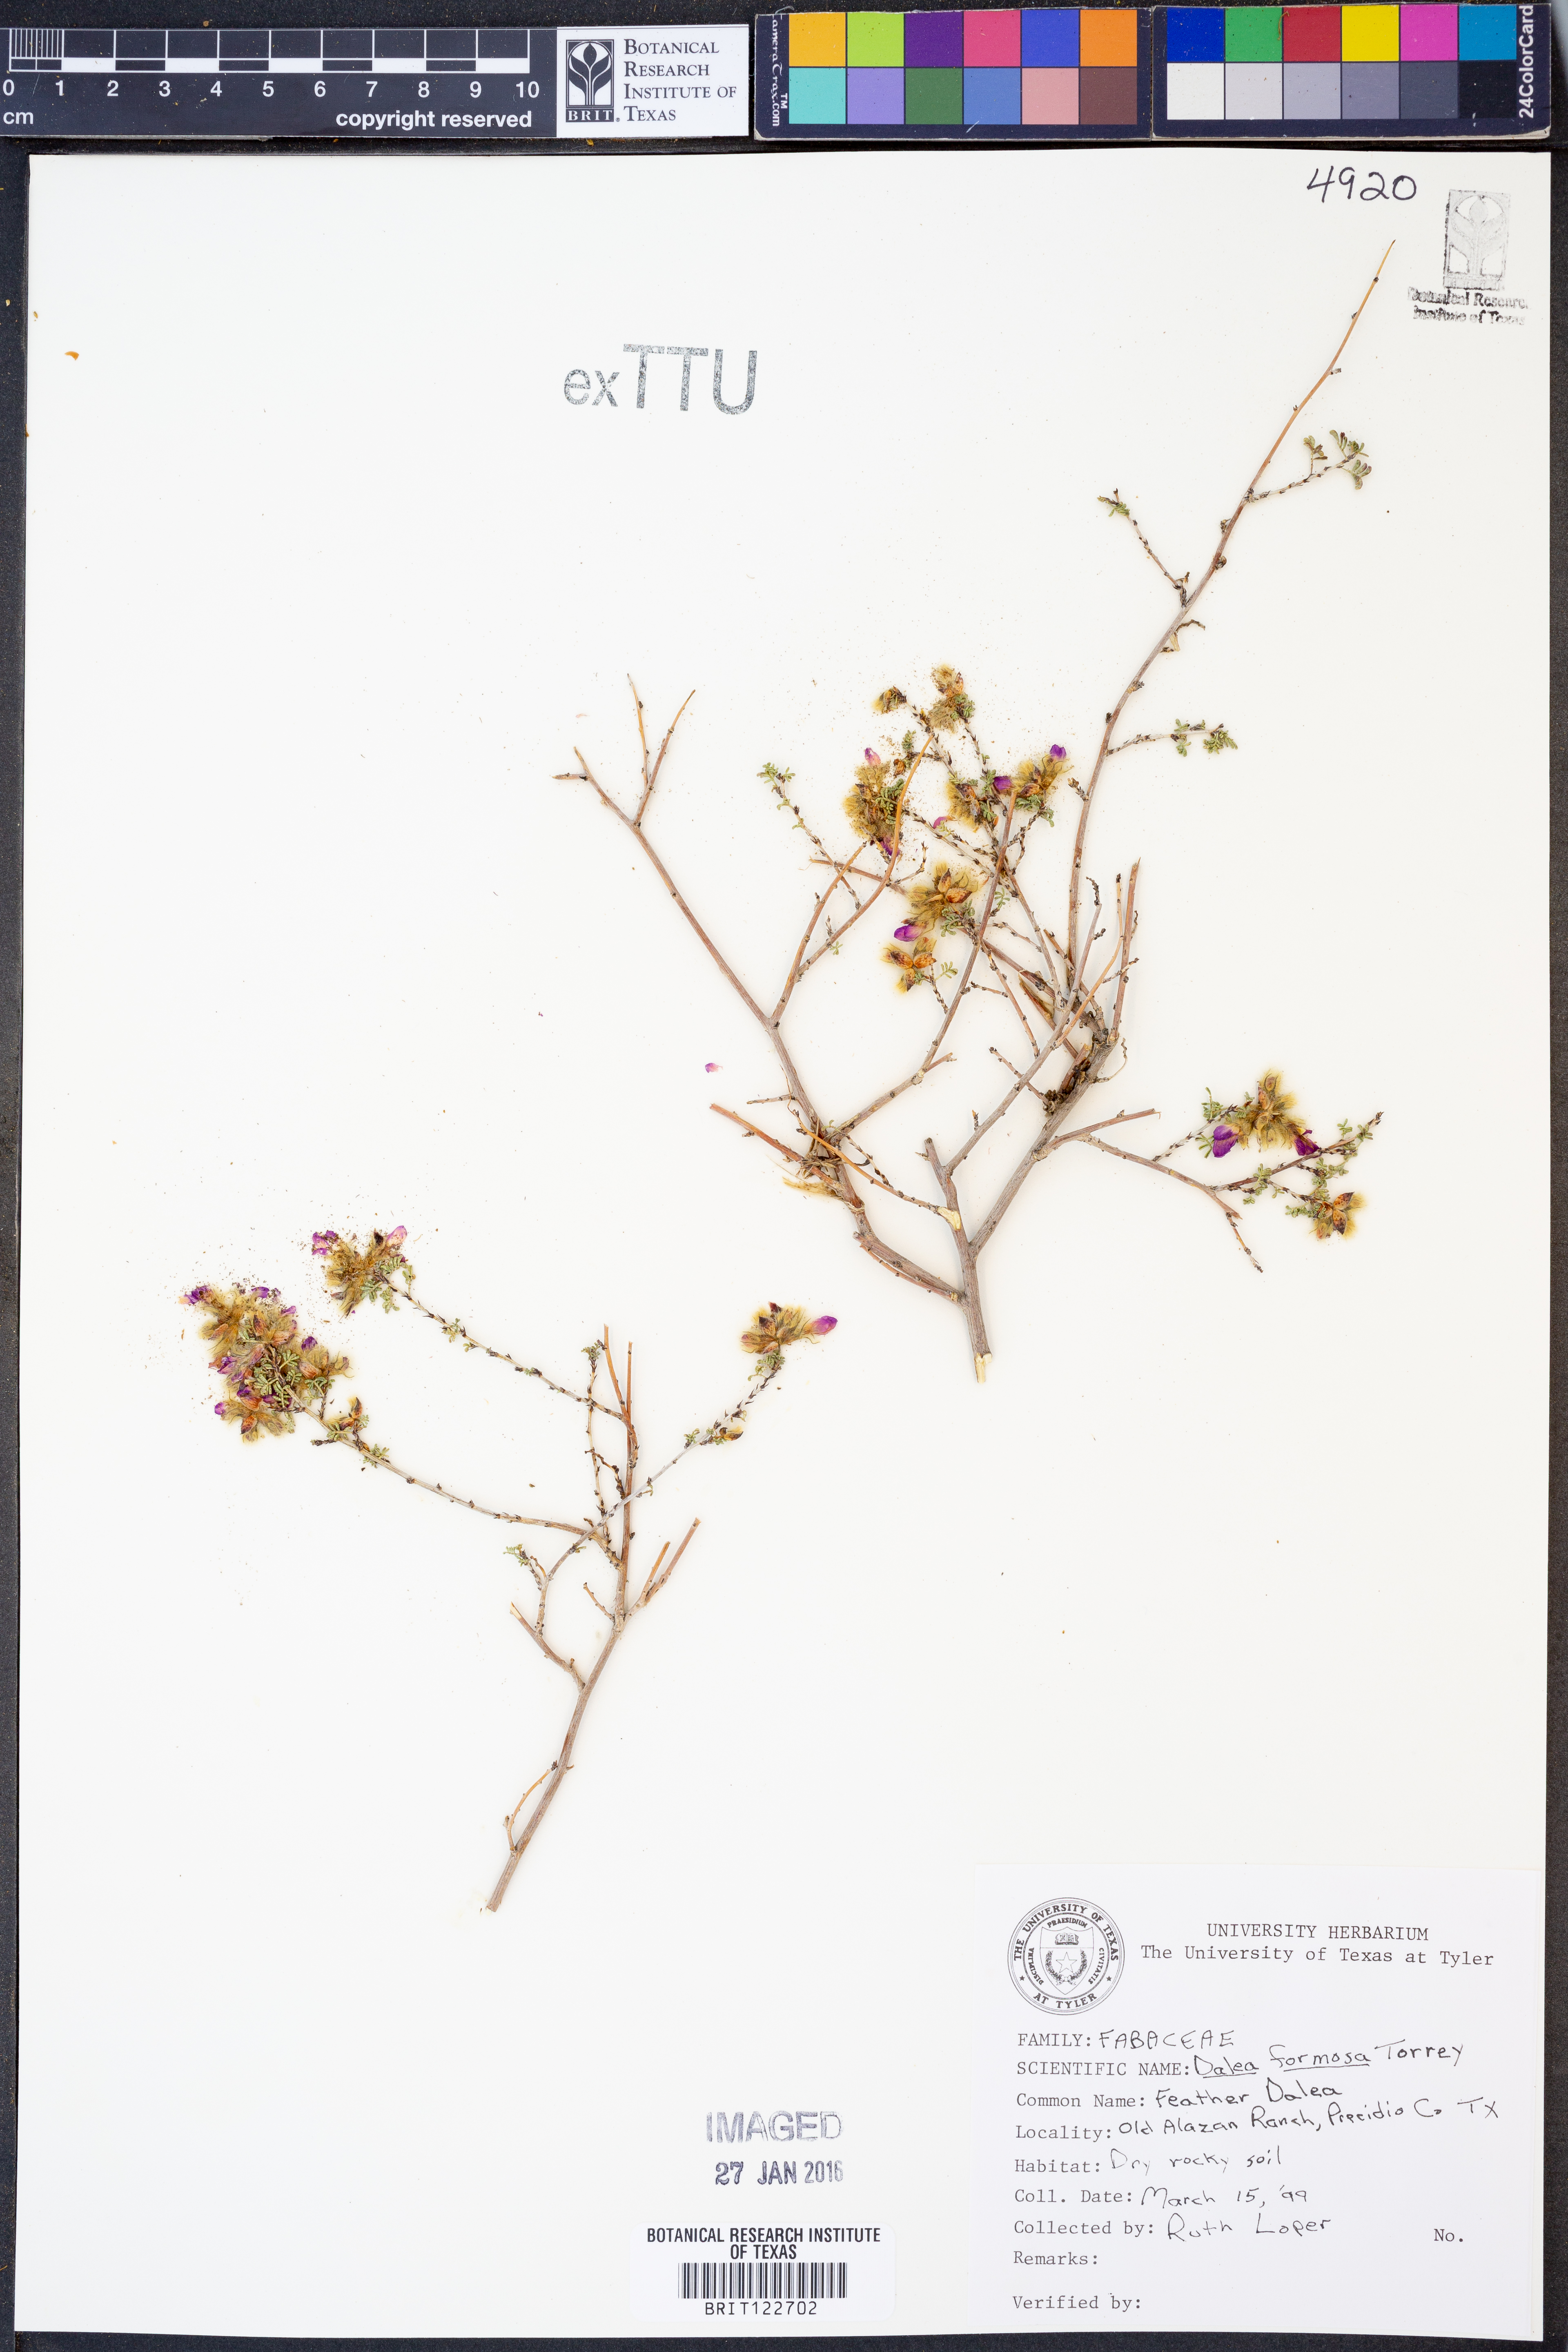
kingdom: Plantae
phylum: Tracheophyta
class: Magnoliopsida
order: Fabales
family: Fabaceae
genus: Dalea
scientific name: Dalea formosa
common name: Feather-plume dalea
